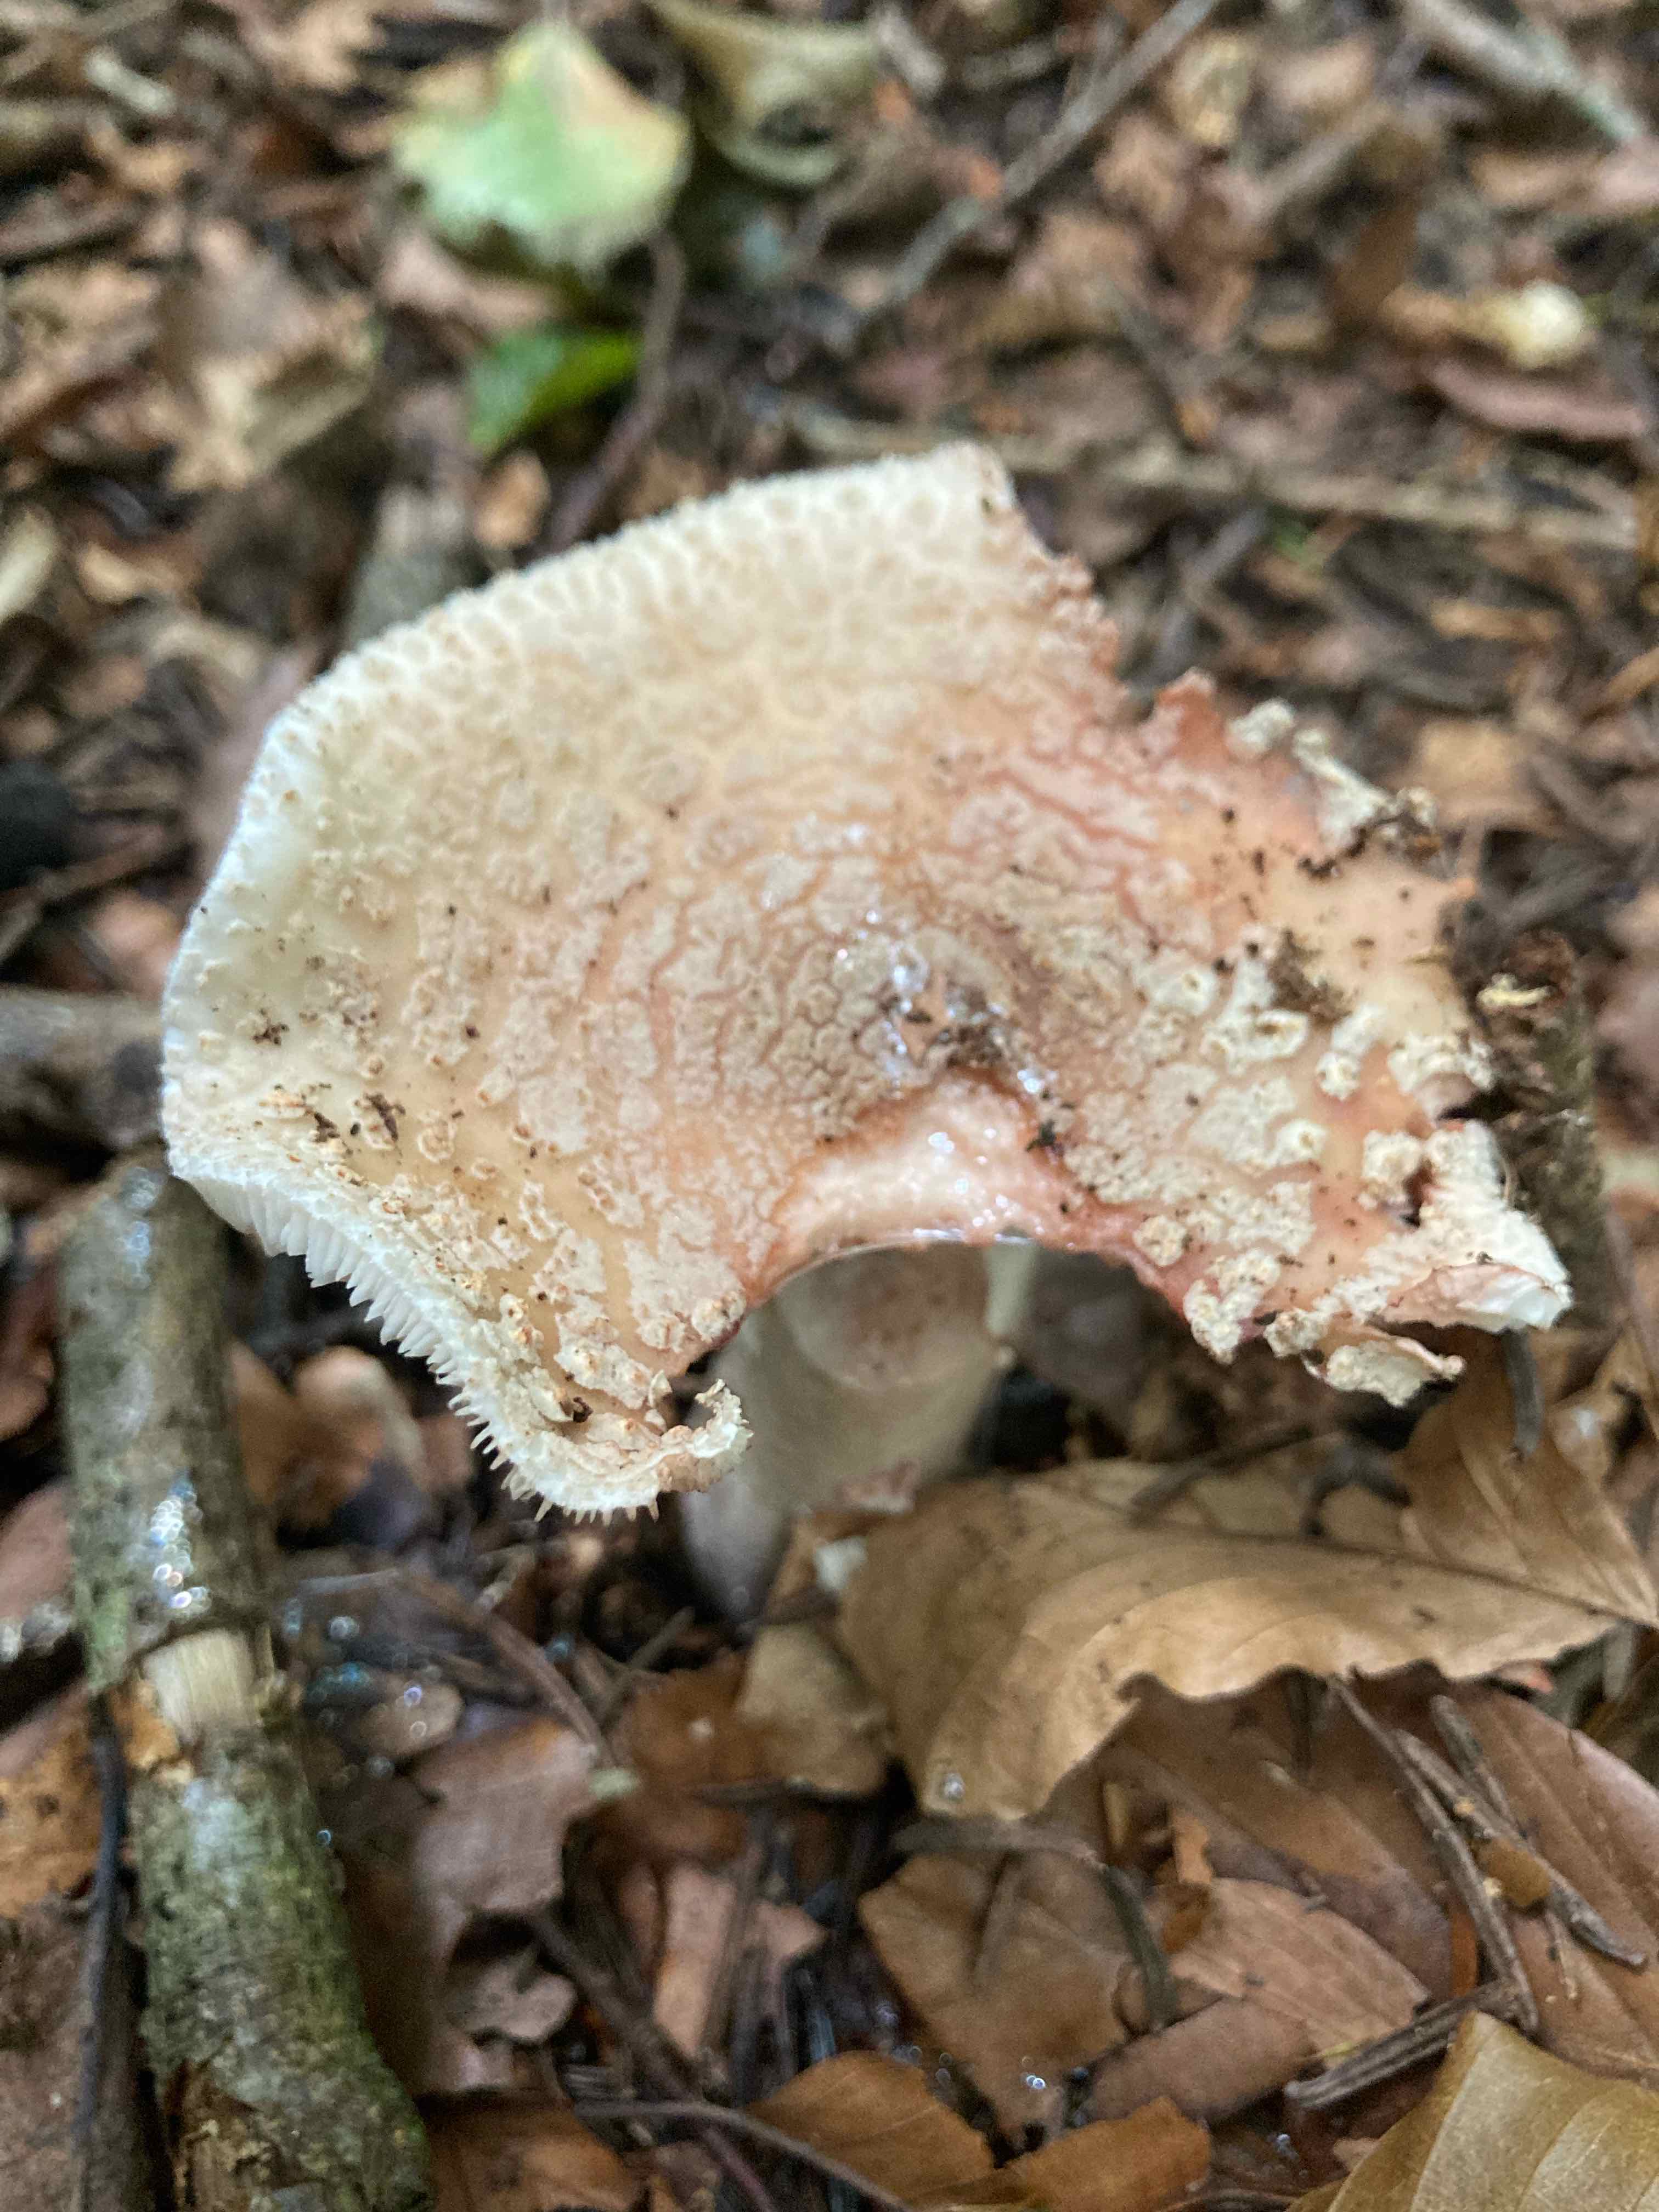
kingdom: Fungi
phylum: Basidiomycota
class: Agaricomycetes
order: Agaricales
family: Amanitaceae
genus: Amanita
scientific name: Amanita rubescens
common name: rødmende fluesvamp
